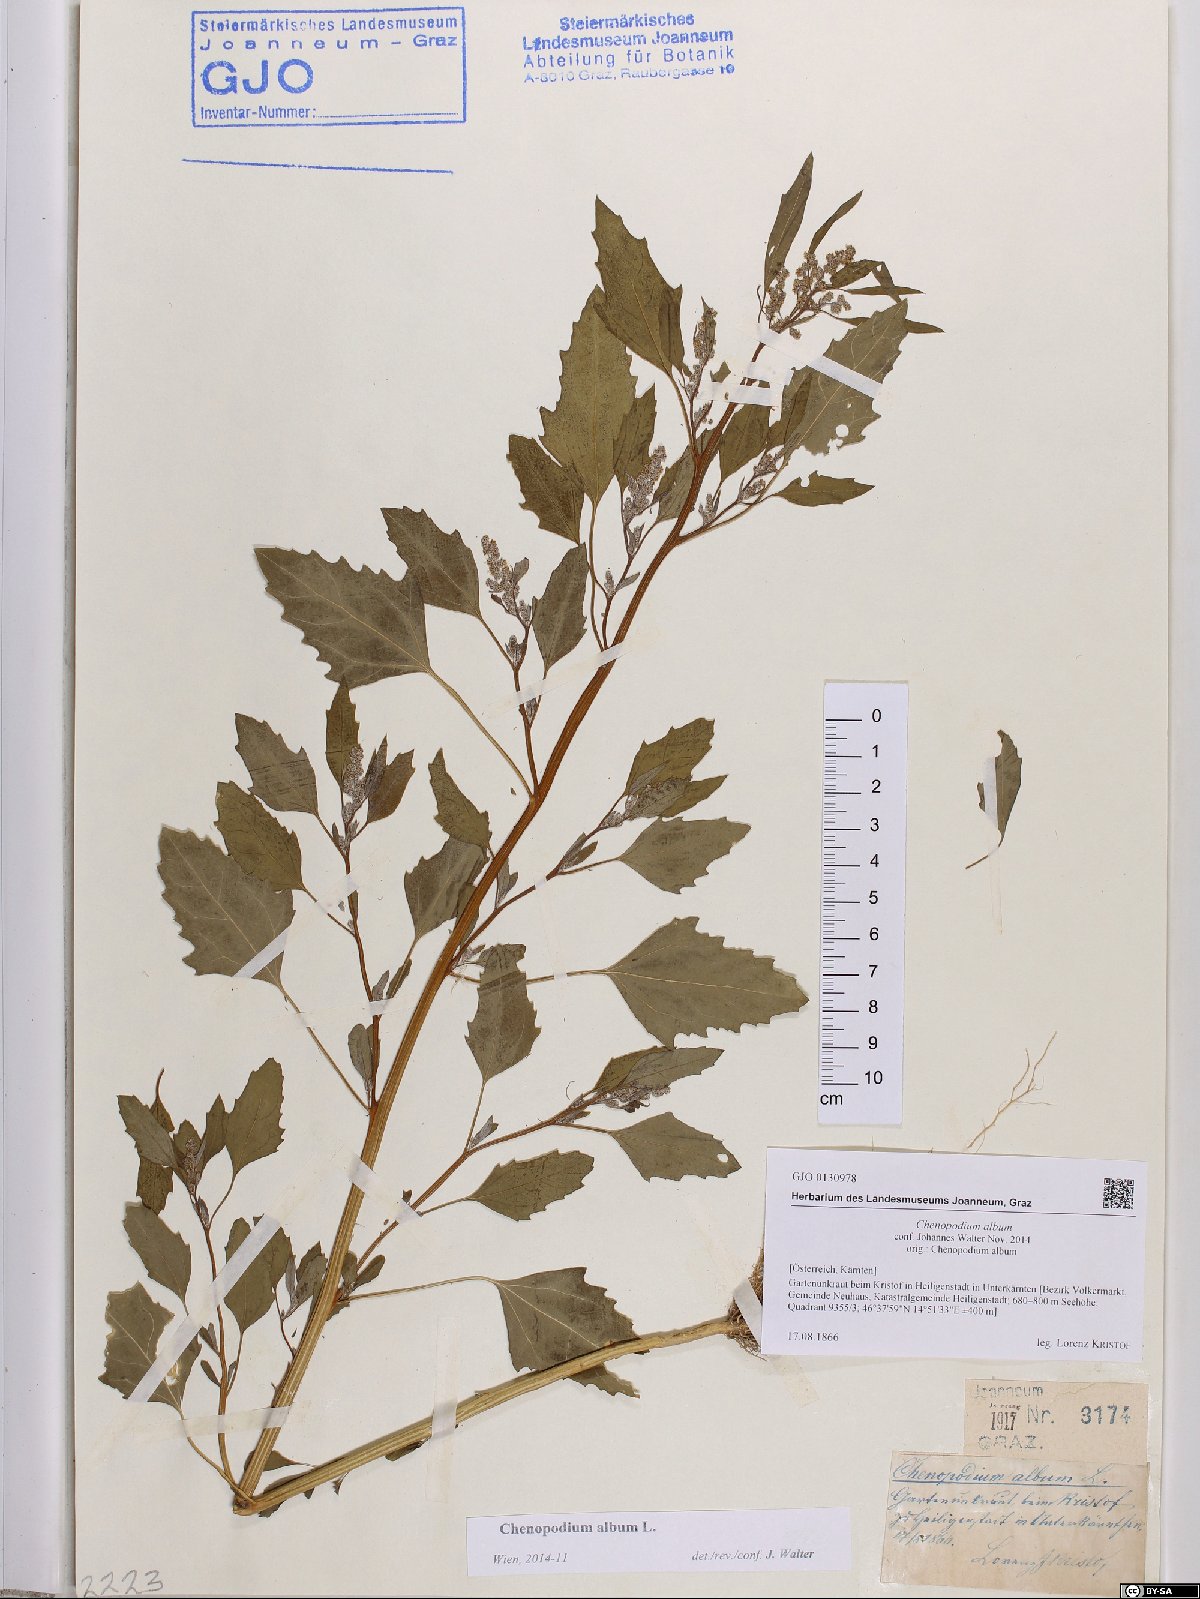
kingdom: Plantae
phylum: Tracheophyta
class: Magnoliopsida
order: Caryophyllales
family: Amaranthaceae
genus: Chenopodium
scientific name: Chenopodium album
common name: Fat-hen
